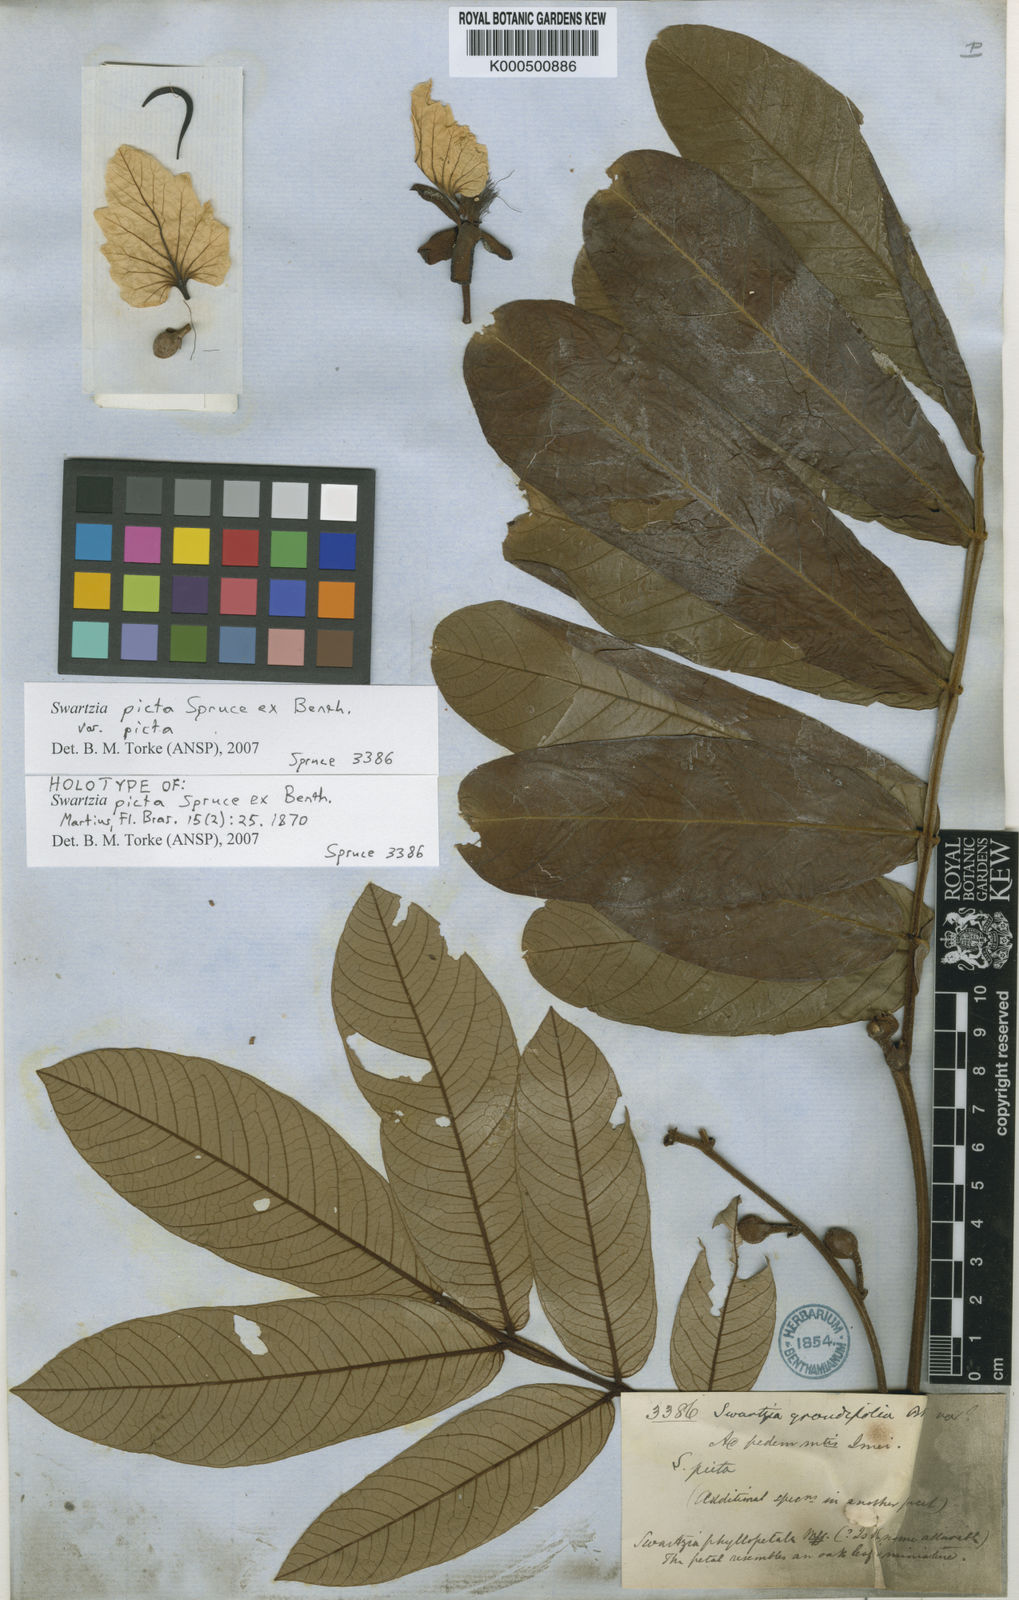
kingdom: Plantae
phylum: Tracheophyta
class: Magnoliopsida
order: Fabales
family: Fabaceae
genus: Swartzia
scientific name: Swartzia picta
